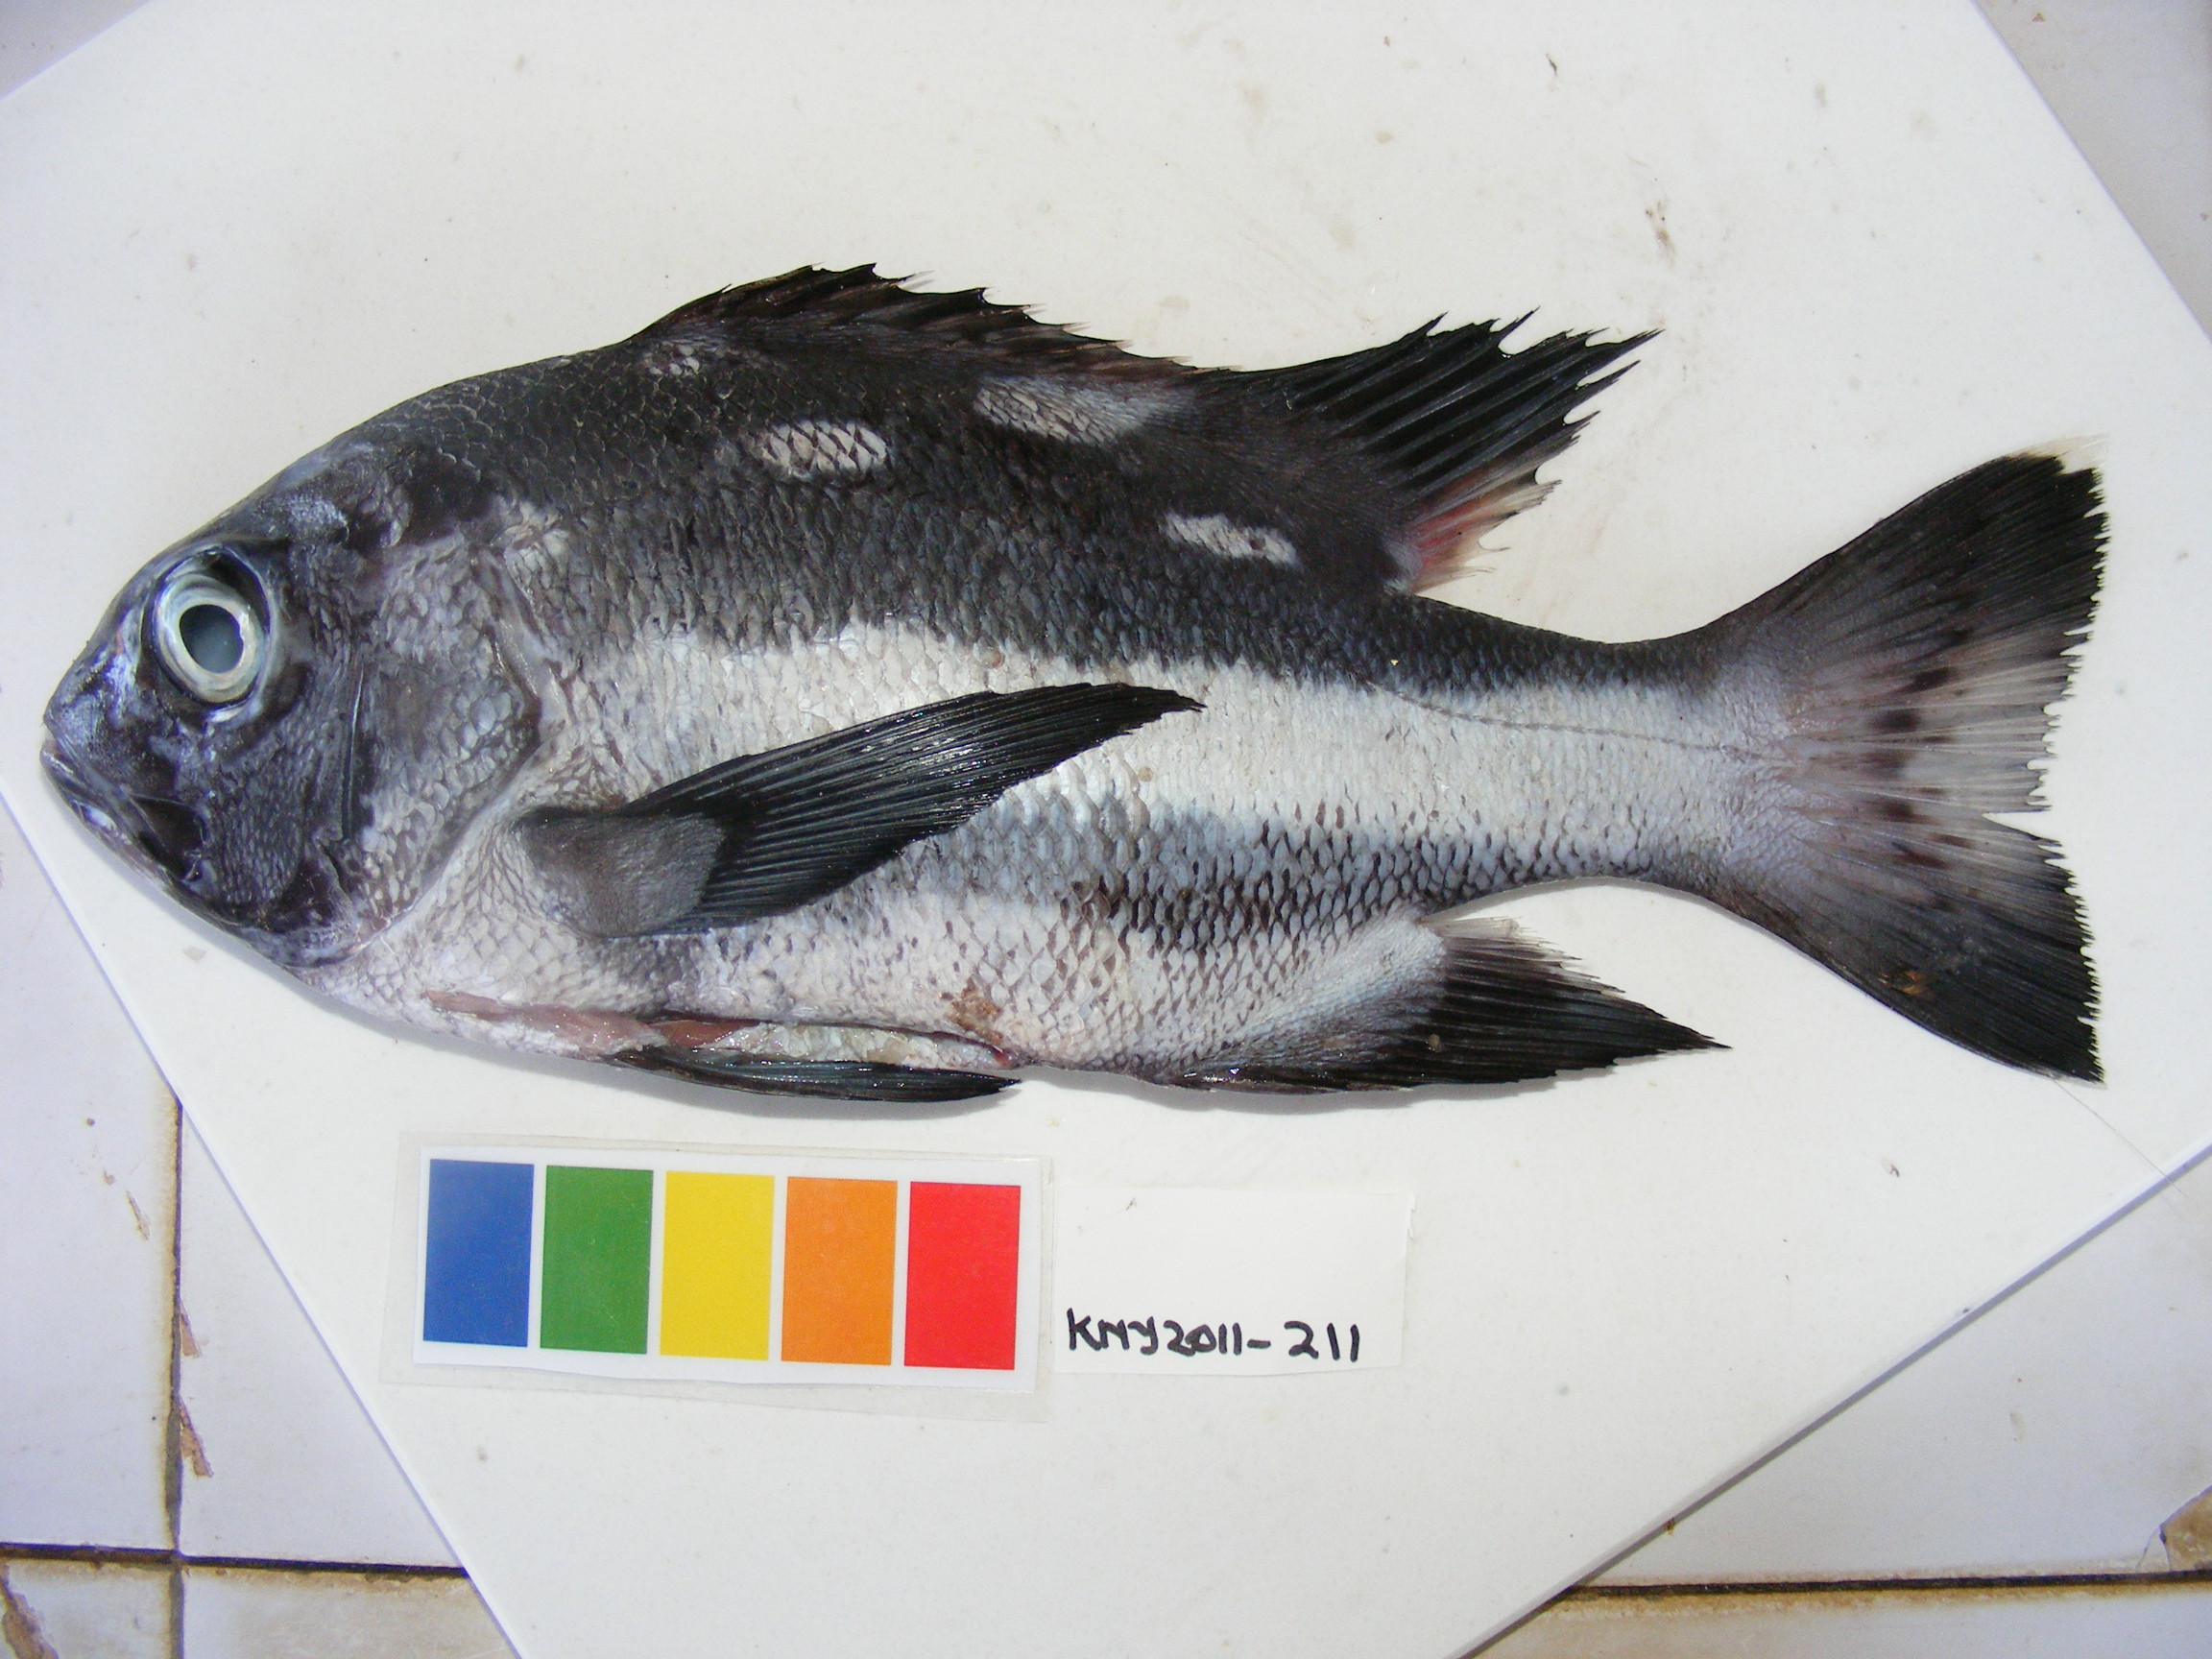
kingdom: Animalia
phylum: Chordata
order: Perciformes
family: Lutjanidae
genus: Macolor
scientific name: Macolor niger
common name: Black snapper
